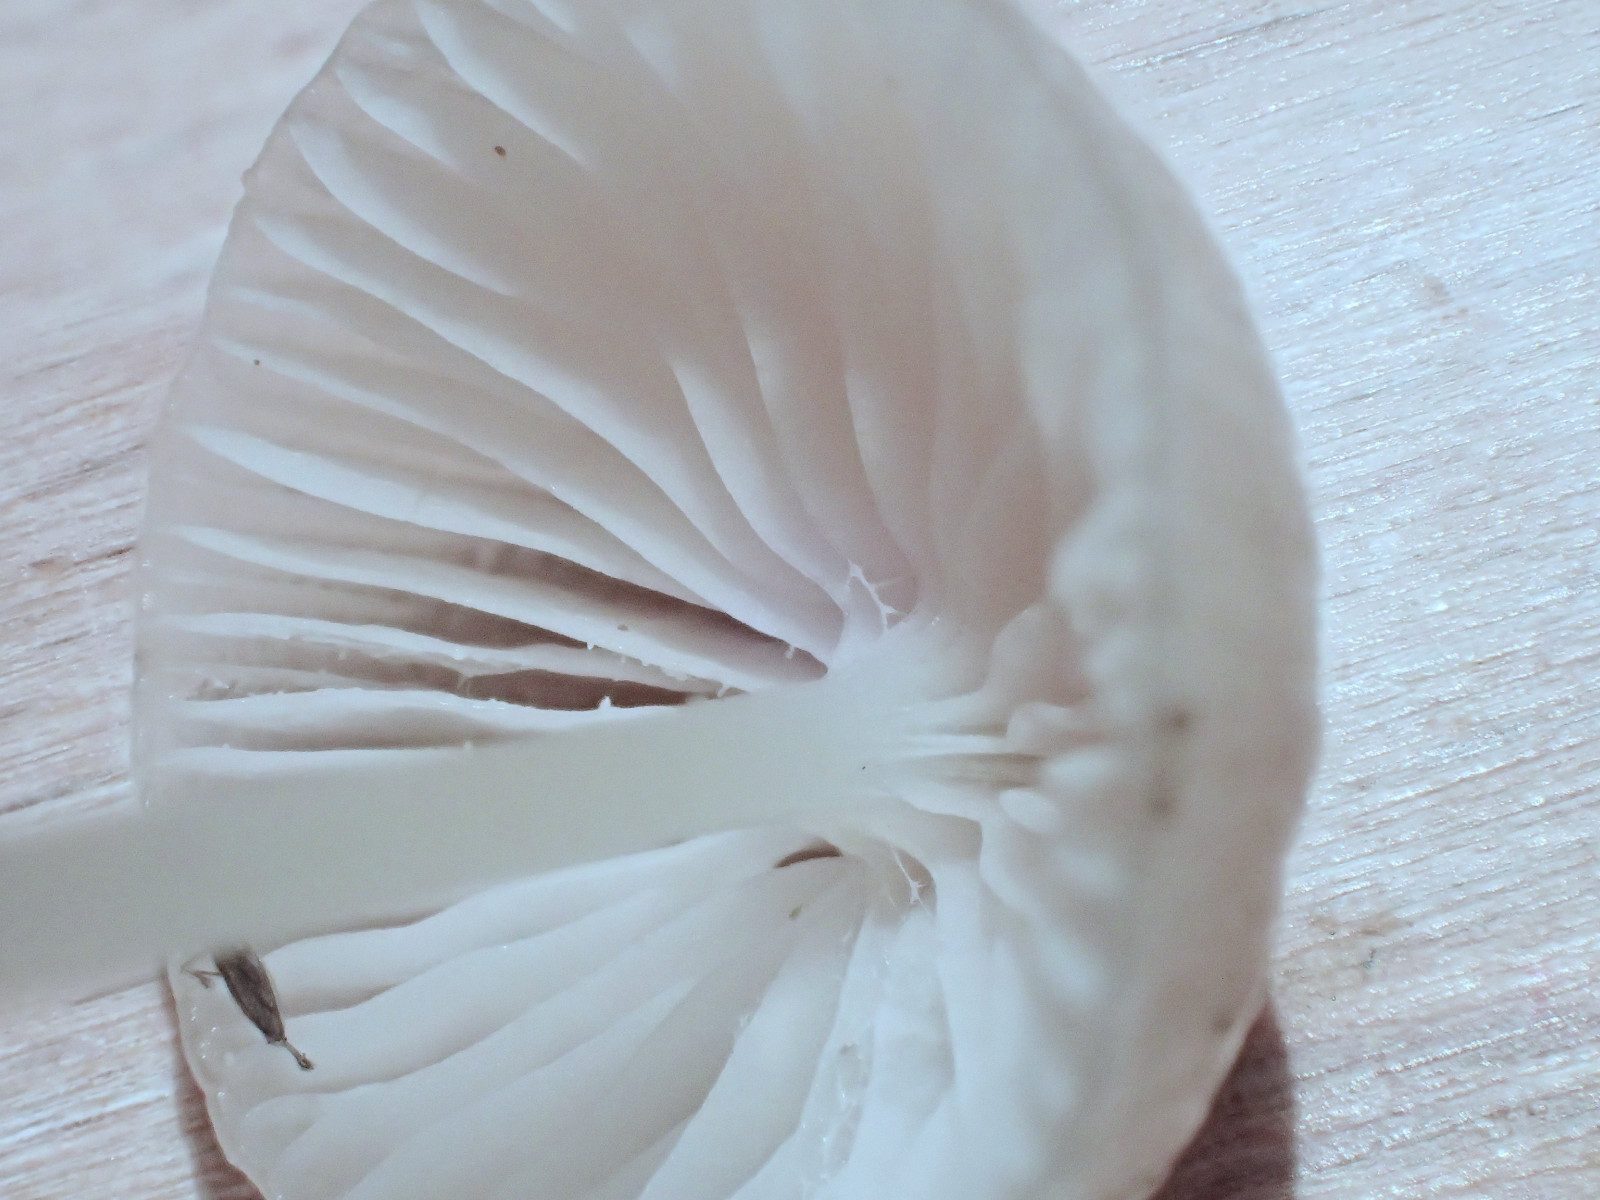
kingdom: Fungi
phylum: Basidiomycota
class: Agaricomycetes
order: Agaricales
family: Mycenaceae
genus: Mycena
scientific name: Mycena epipterygia
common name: Yellowleg bonnet
